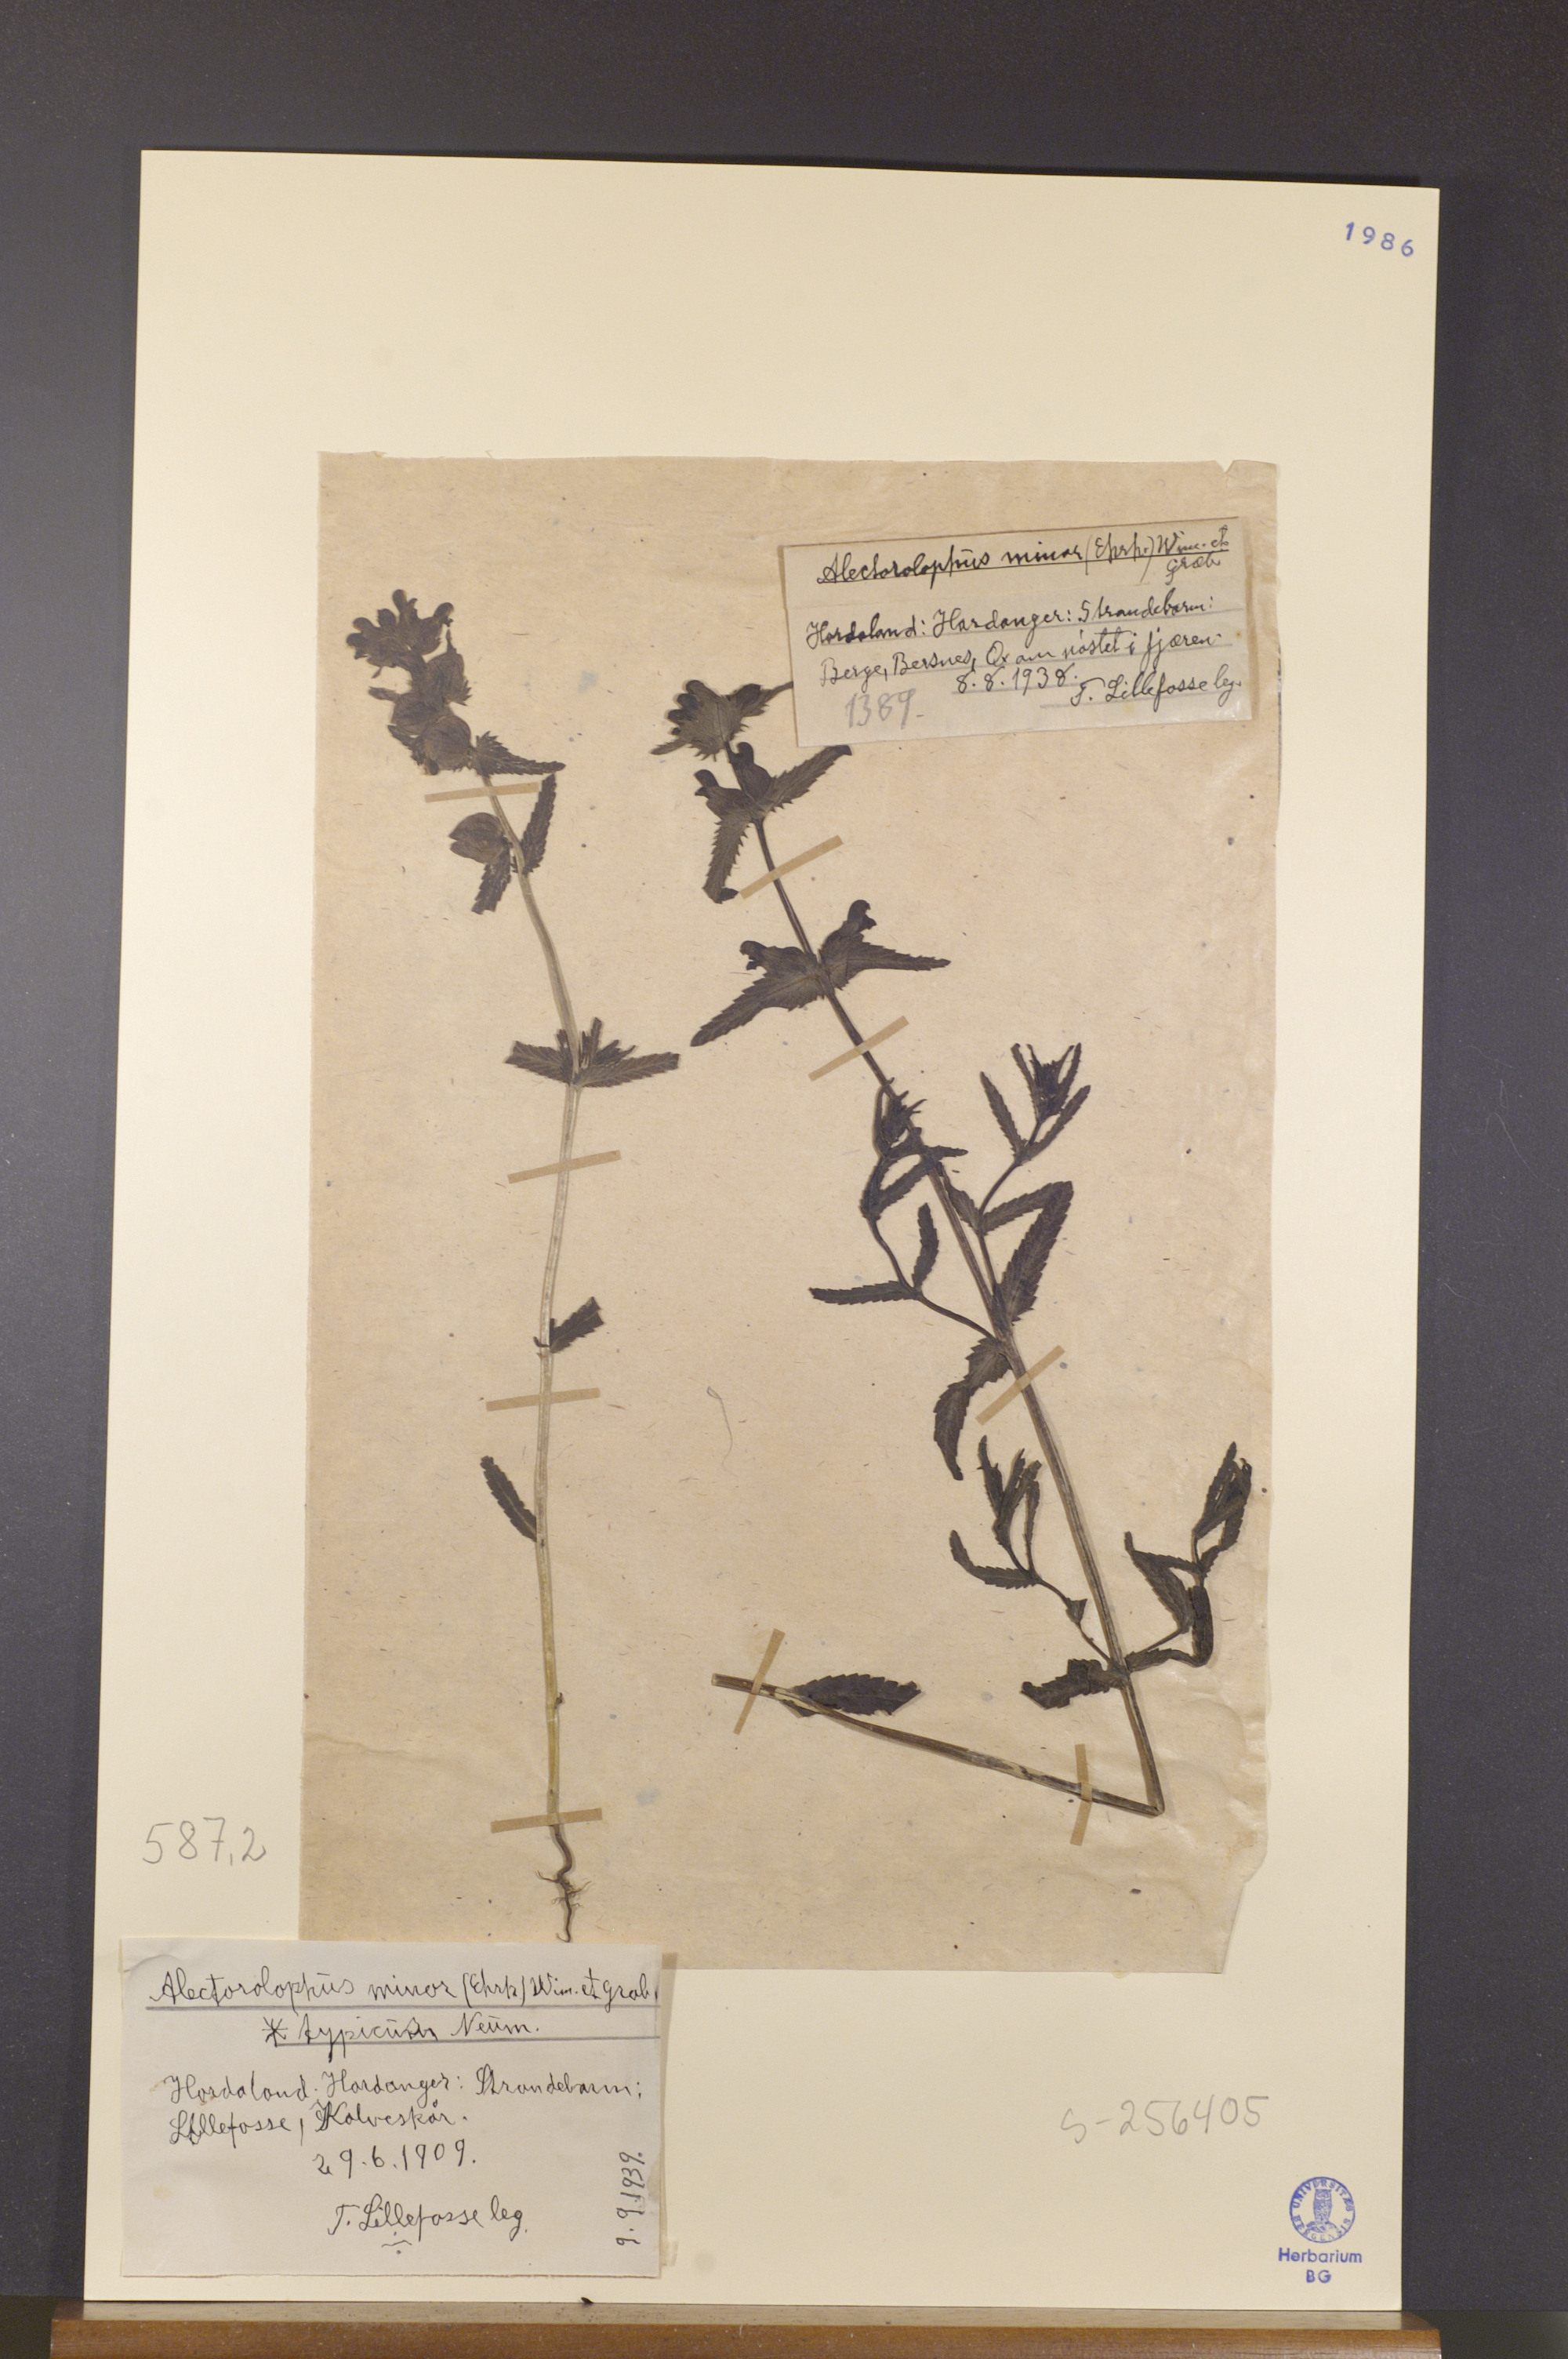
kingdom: Plantae
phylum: Tracheophyta
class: Magnoliopsida
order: Lamiales
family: Orobanchaceae
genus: Rhinanthus
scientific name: Rhinanthus minor
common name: Yellow-rattle
